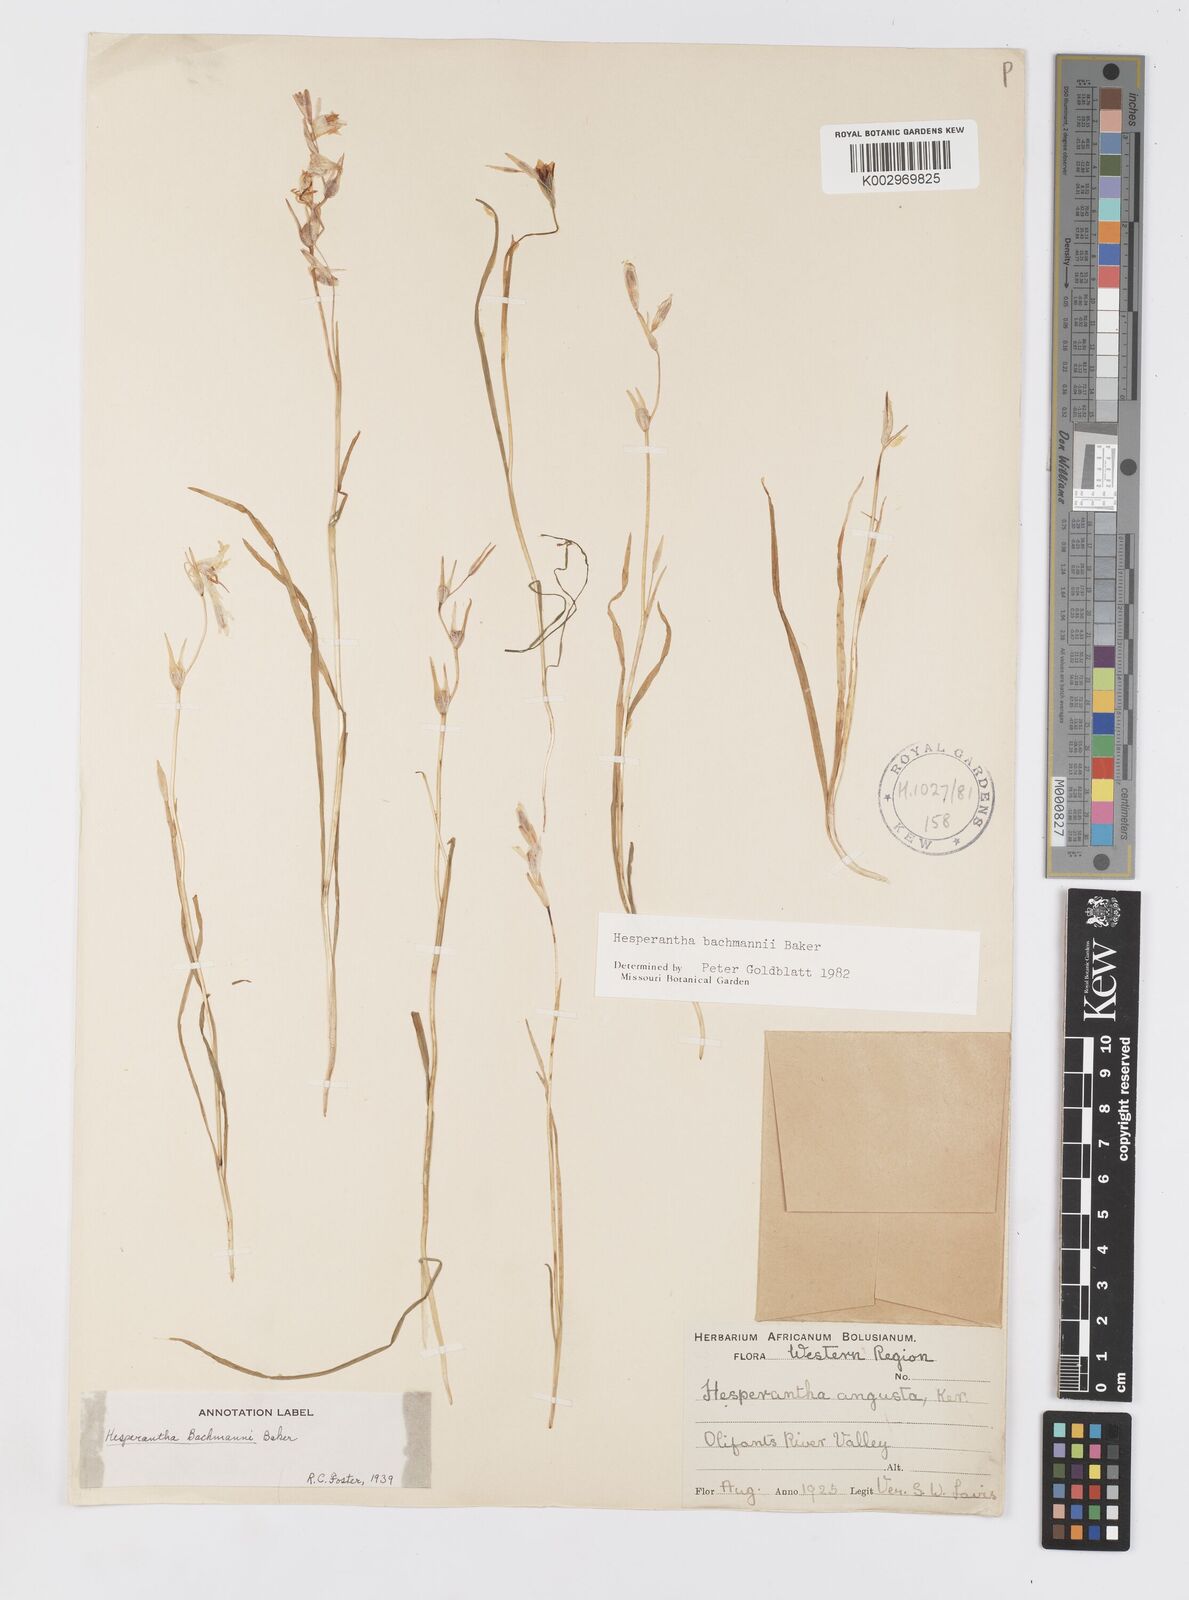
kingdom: Plantae
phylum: Tracheophyta
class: Liliopsida
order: Asparagales
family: Iridaceae
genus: Hesperantha
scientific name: Hesperantha bachmannii
